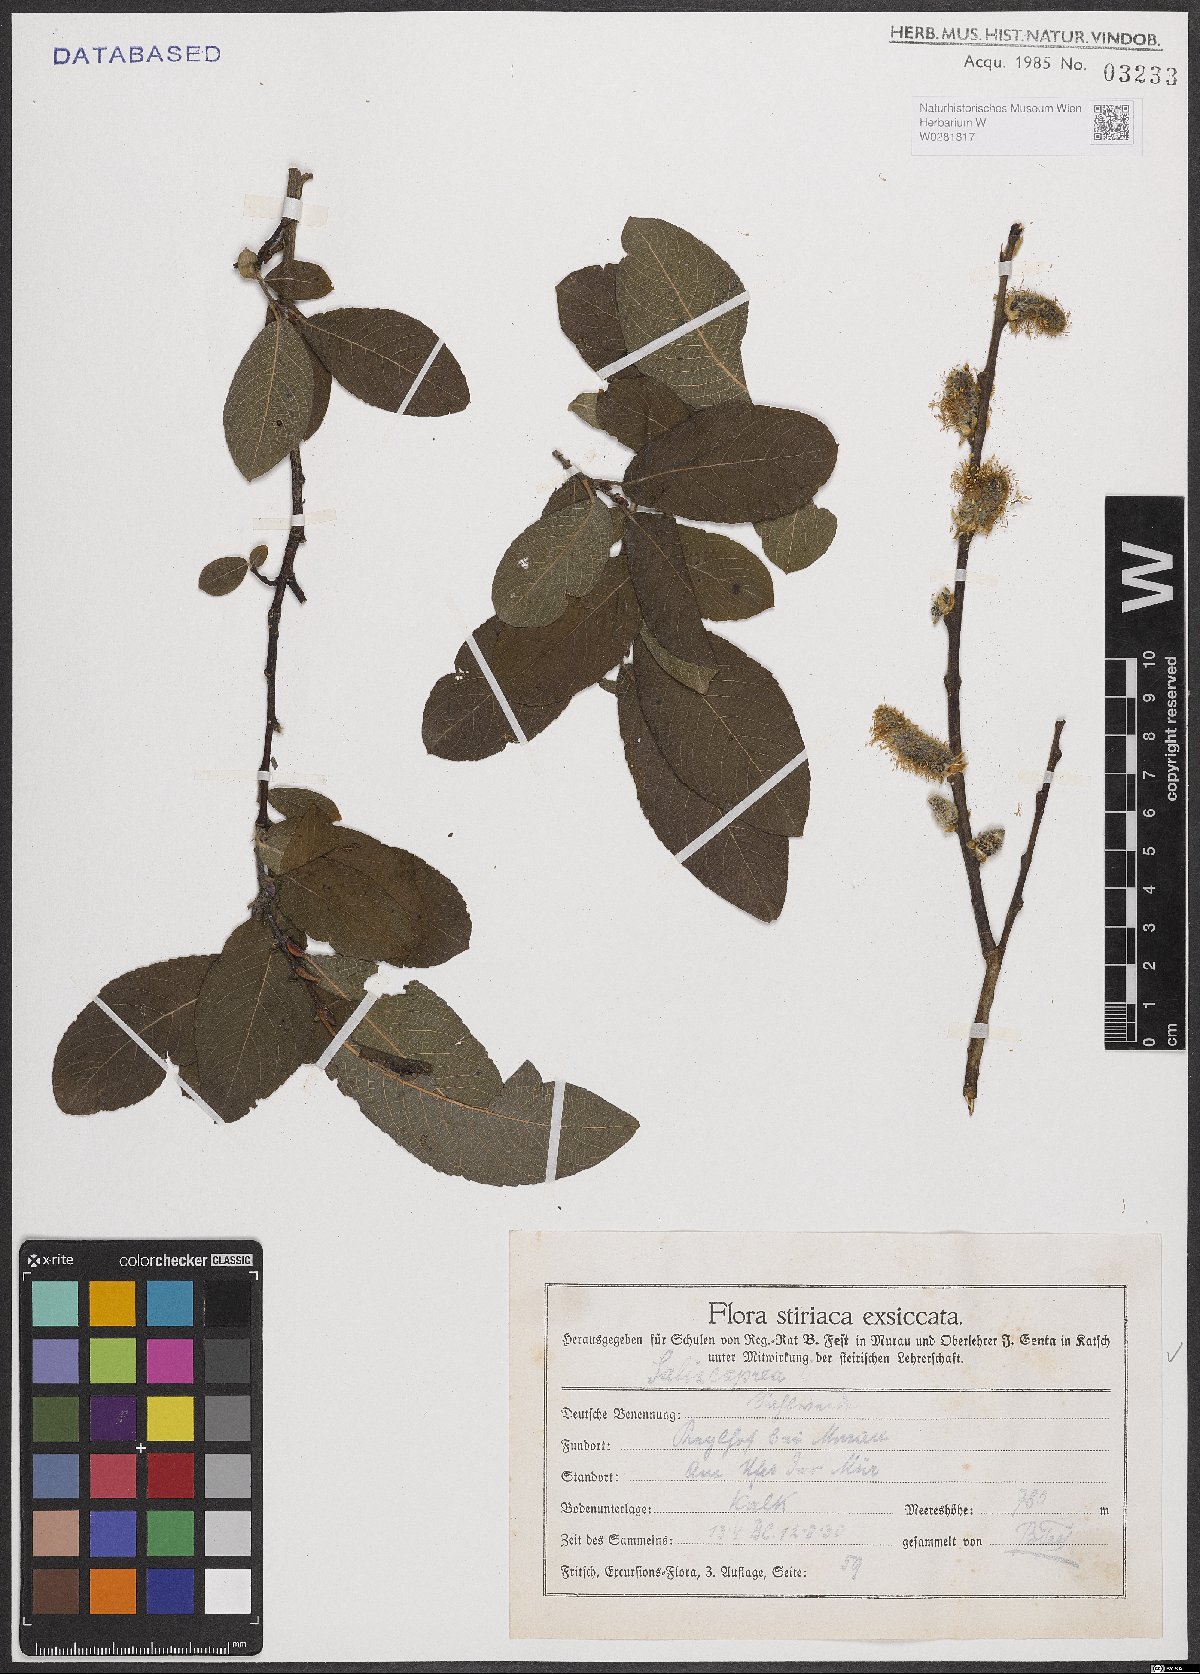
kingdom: Plantae
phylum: Tracheophyta
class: Magnoliopsida
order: Malpighiales
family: Salicaceae
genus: Salix
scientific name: Salix caprea
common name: Goat willow
